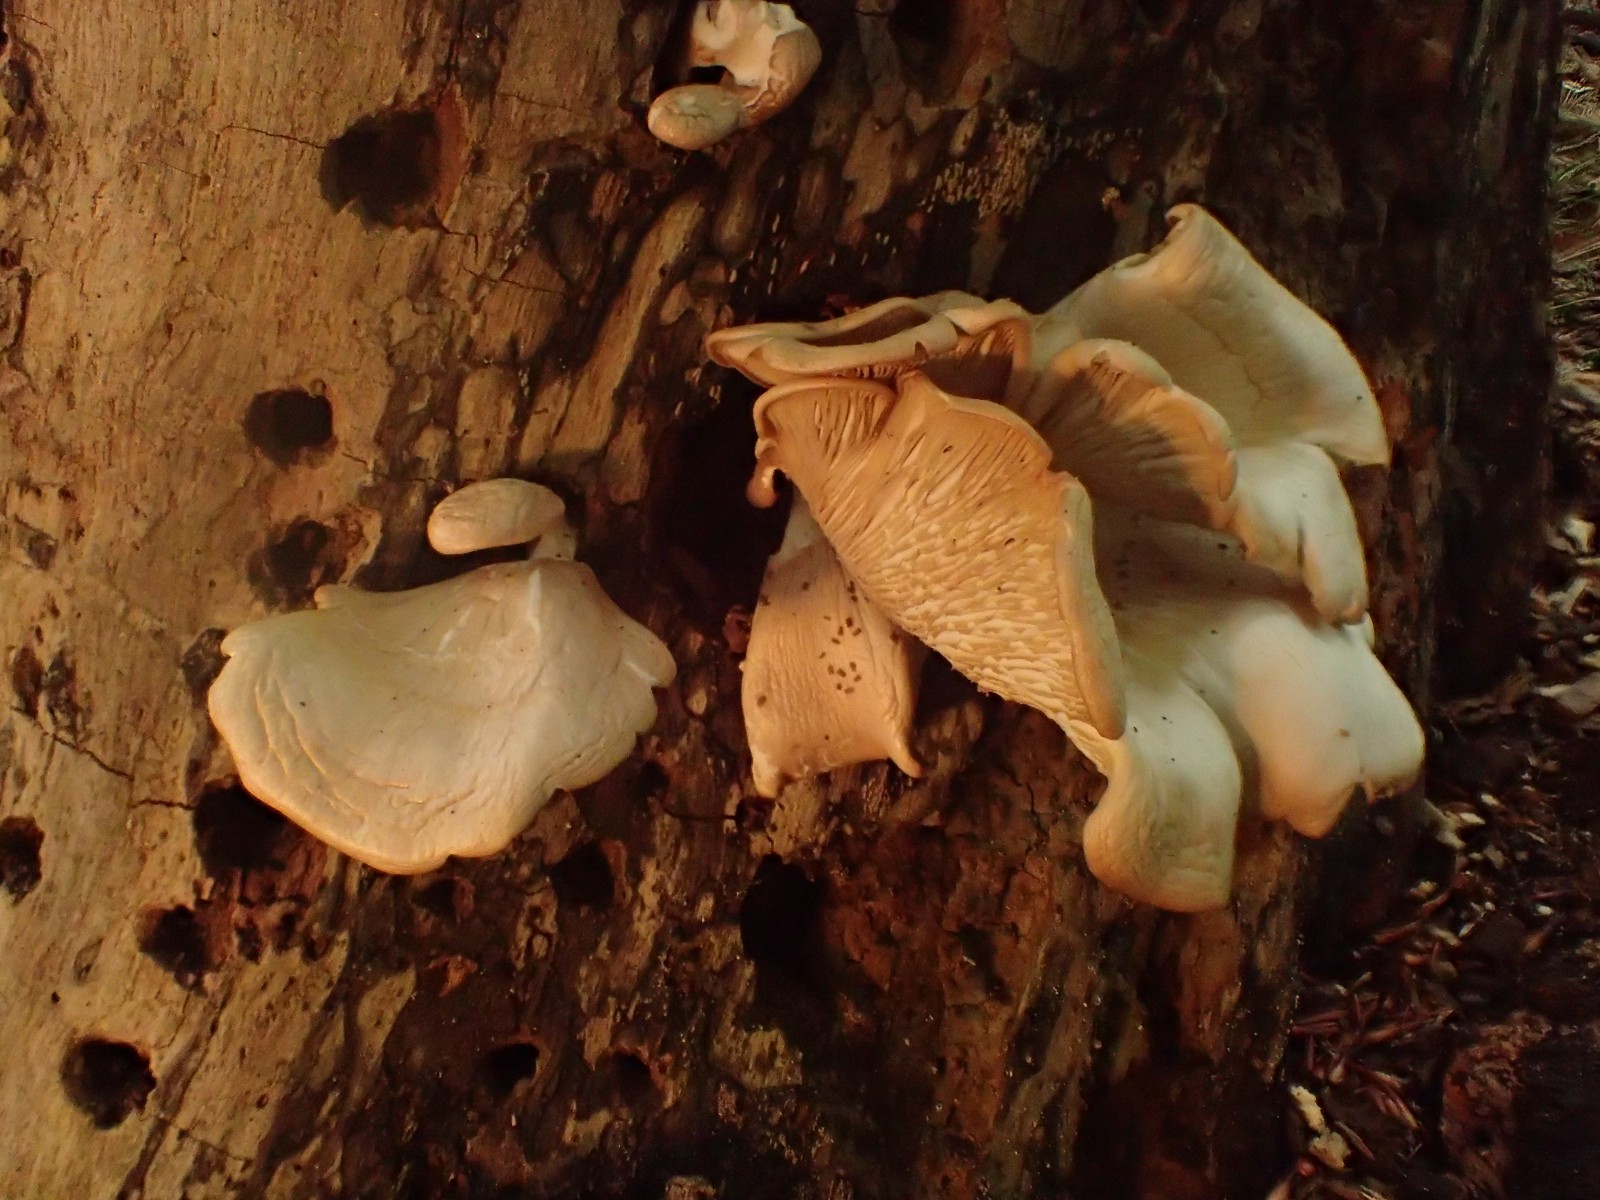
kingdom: Fungi
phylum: Basidiomycota
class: Agaricomycetes
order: Agaricales
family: Pleurotaceae
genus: Pleurotus
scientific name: Pleurotus pulmonarius
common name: sommer-østershat
